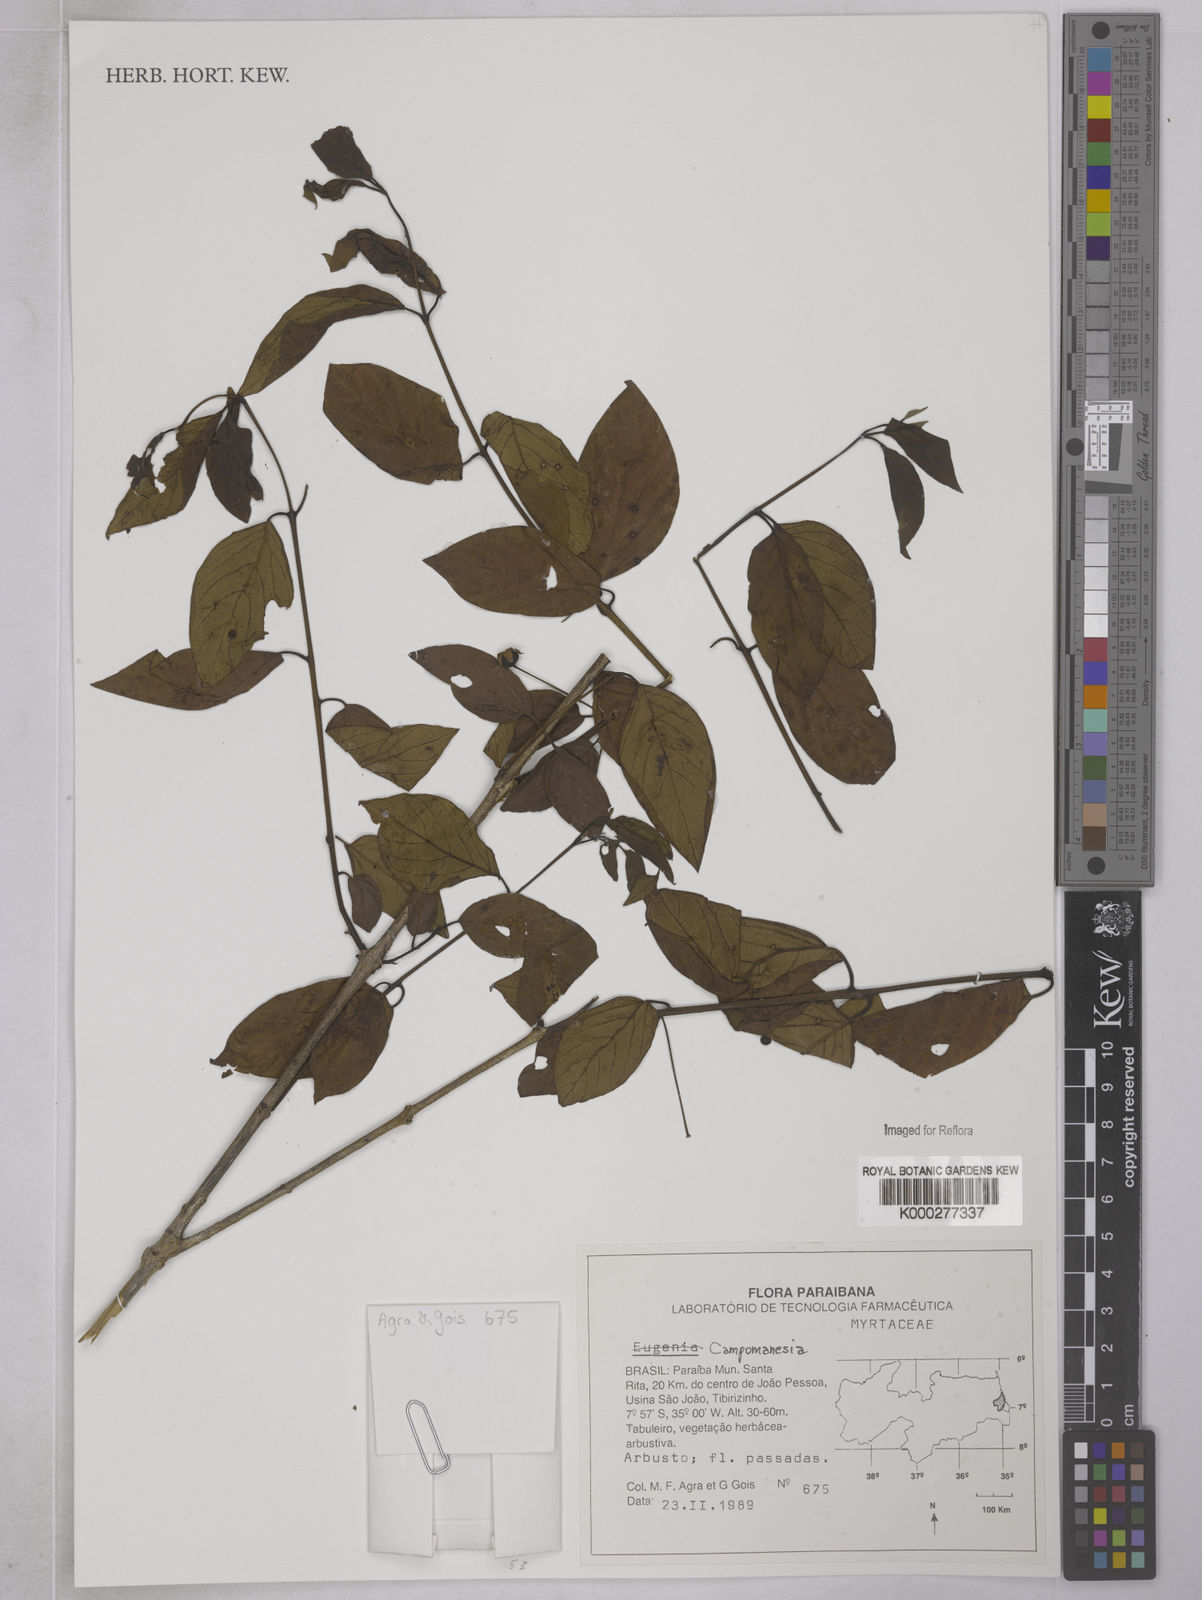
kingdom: Plantae
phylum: Tracheophyta
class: Magnoliopsida
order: Myrtales
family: Myrtaceae
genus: Campomanesia
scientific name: Campomanesia
